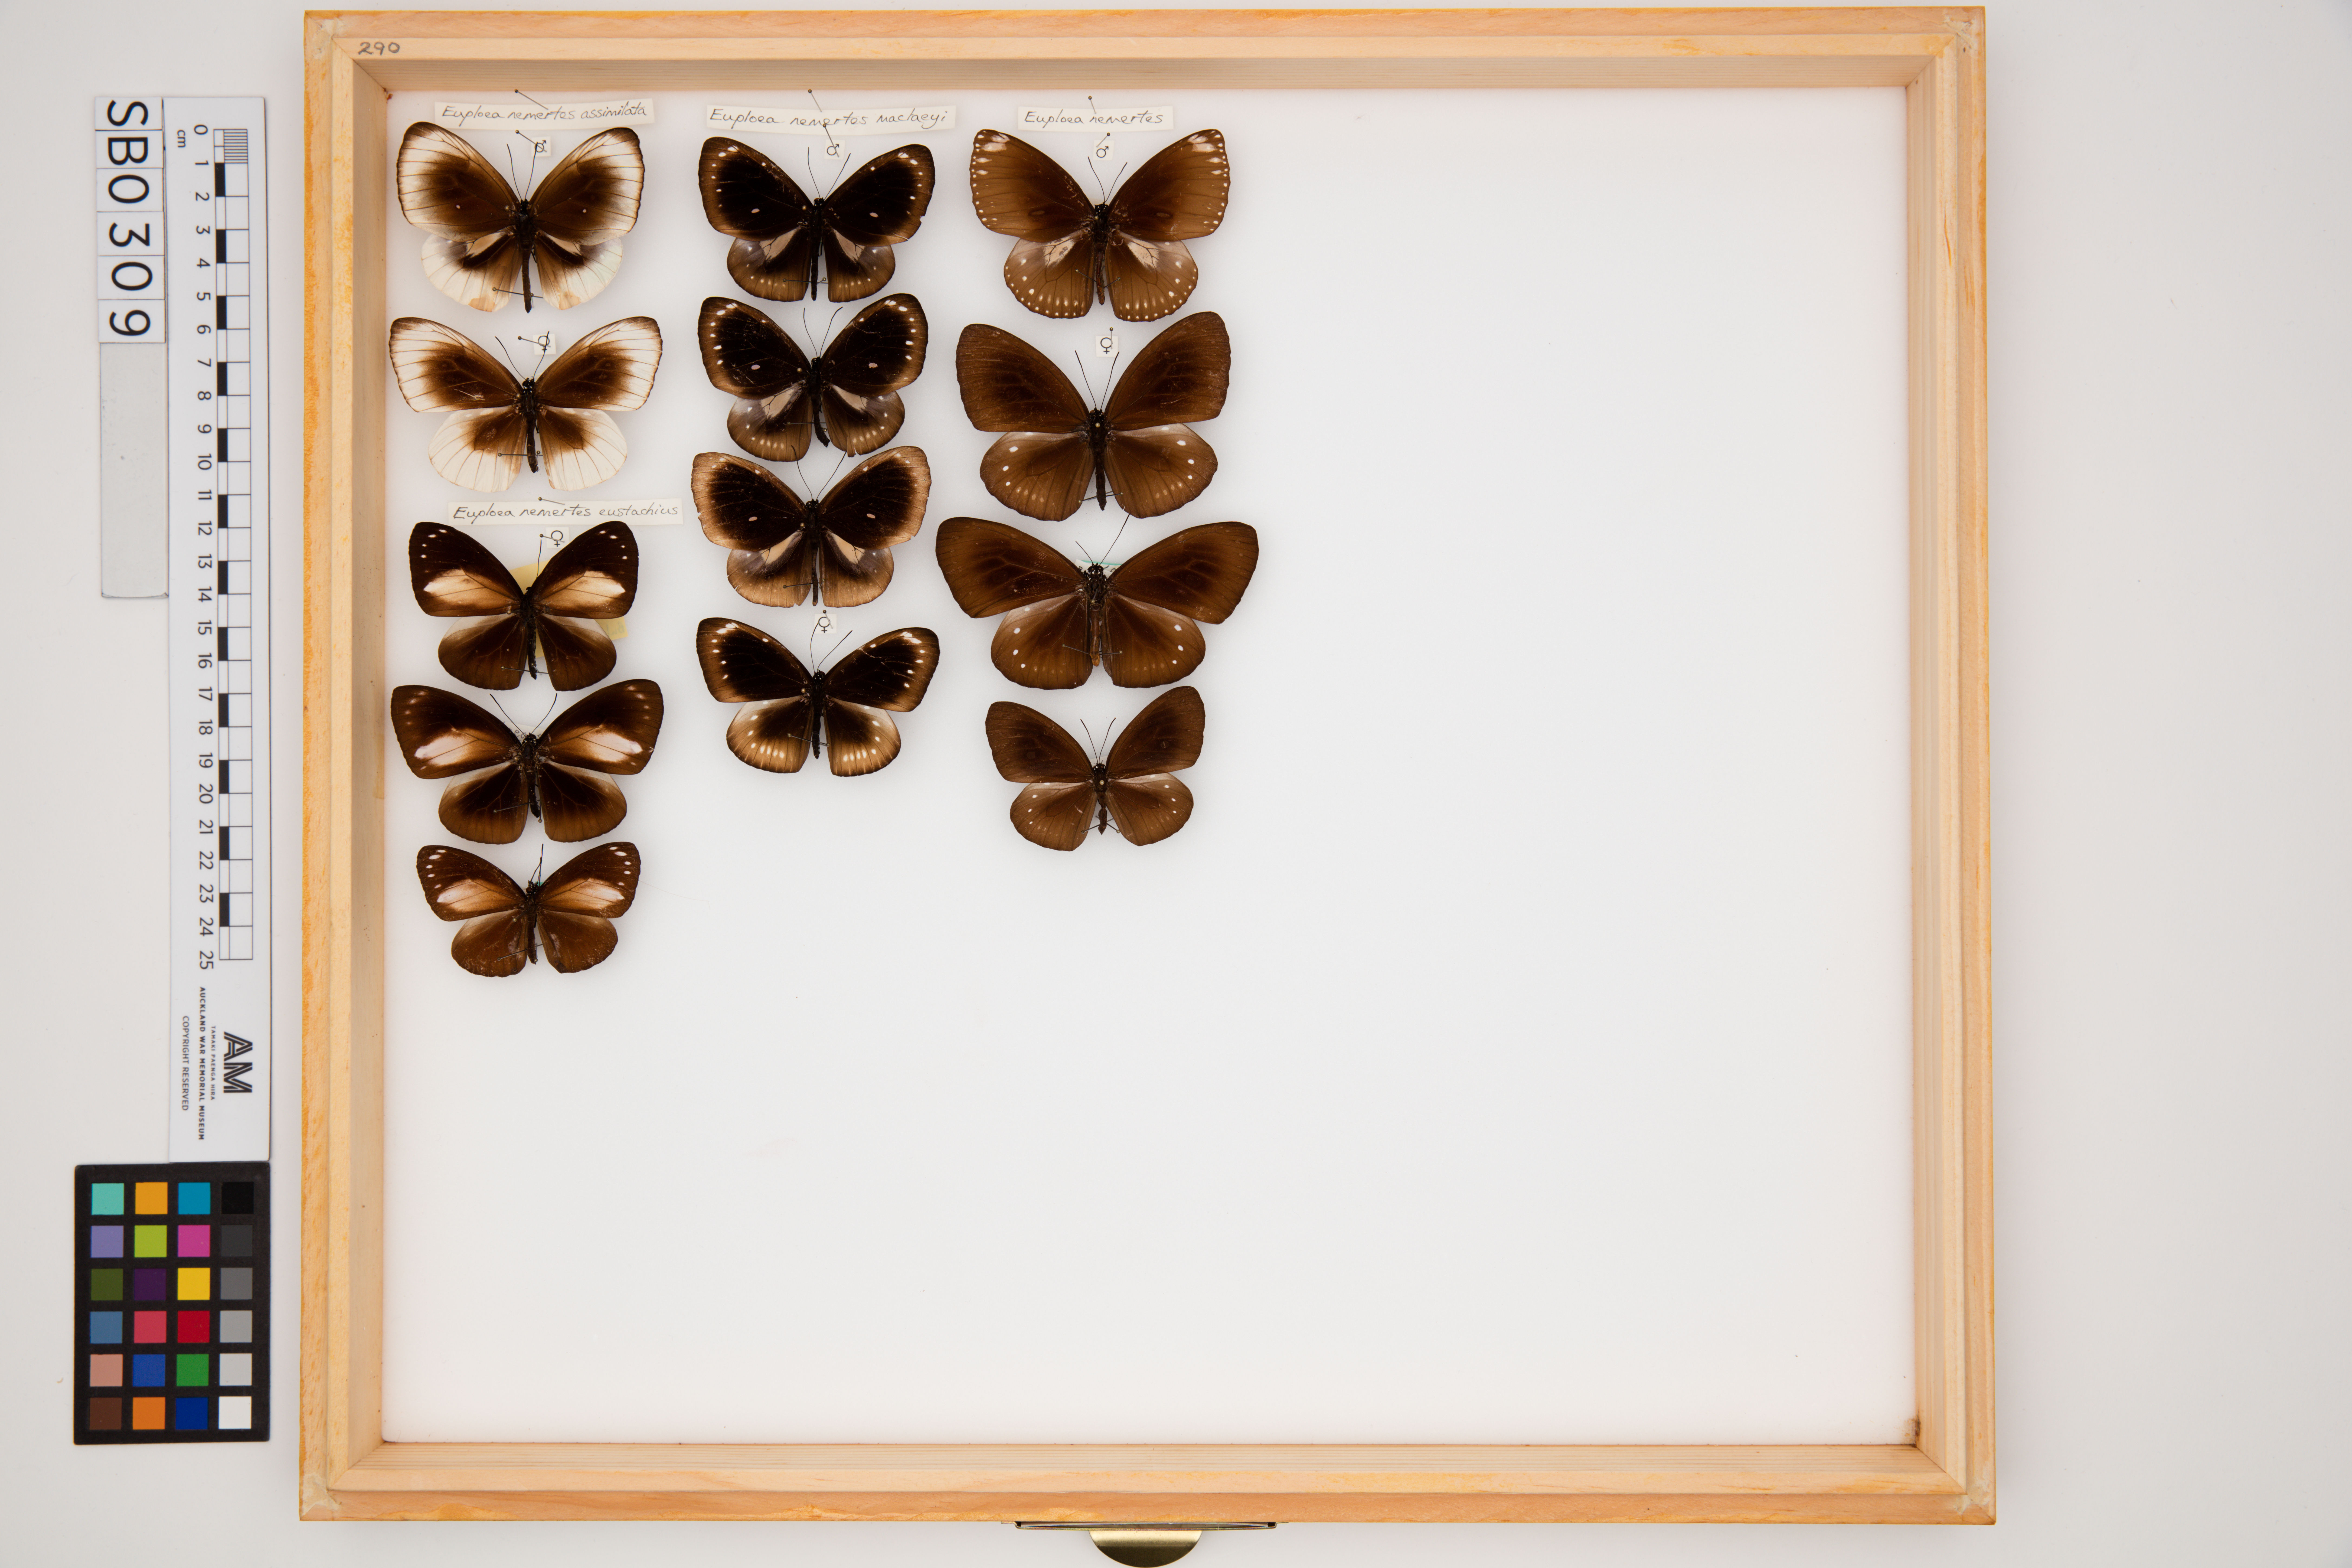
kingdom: Animalia
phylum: Arthropoda
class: Insecta
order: Lepidoptera
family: Nymphalidae
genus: Euploea
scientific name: Euploea leucostictos
